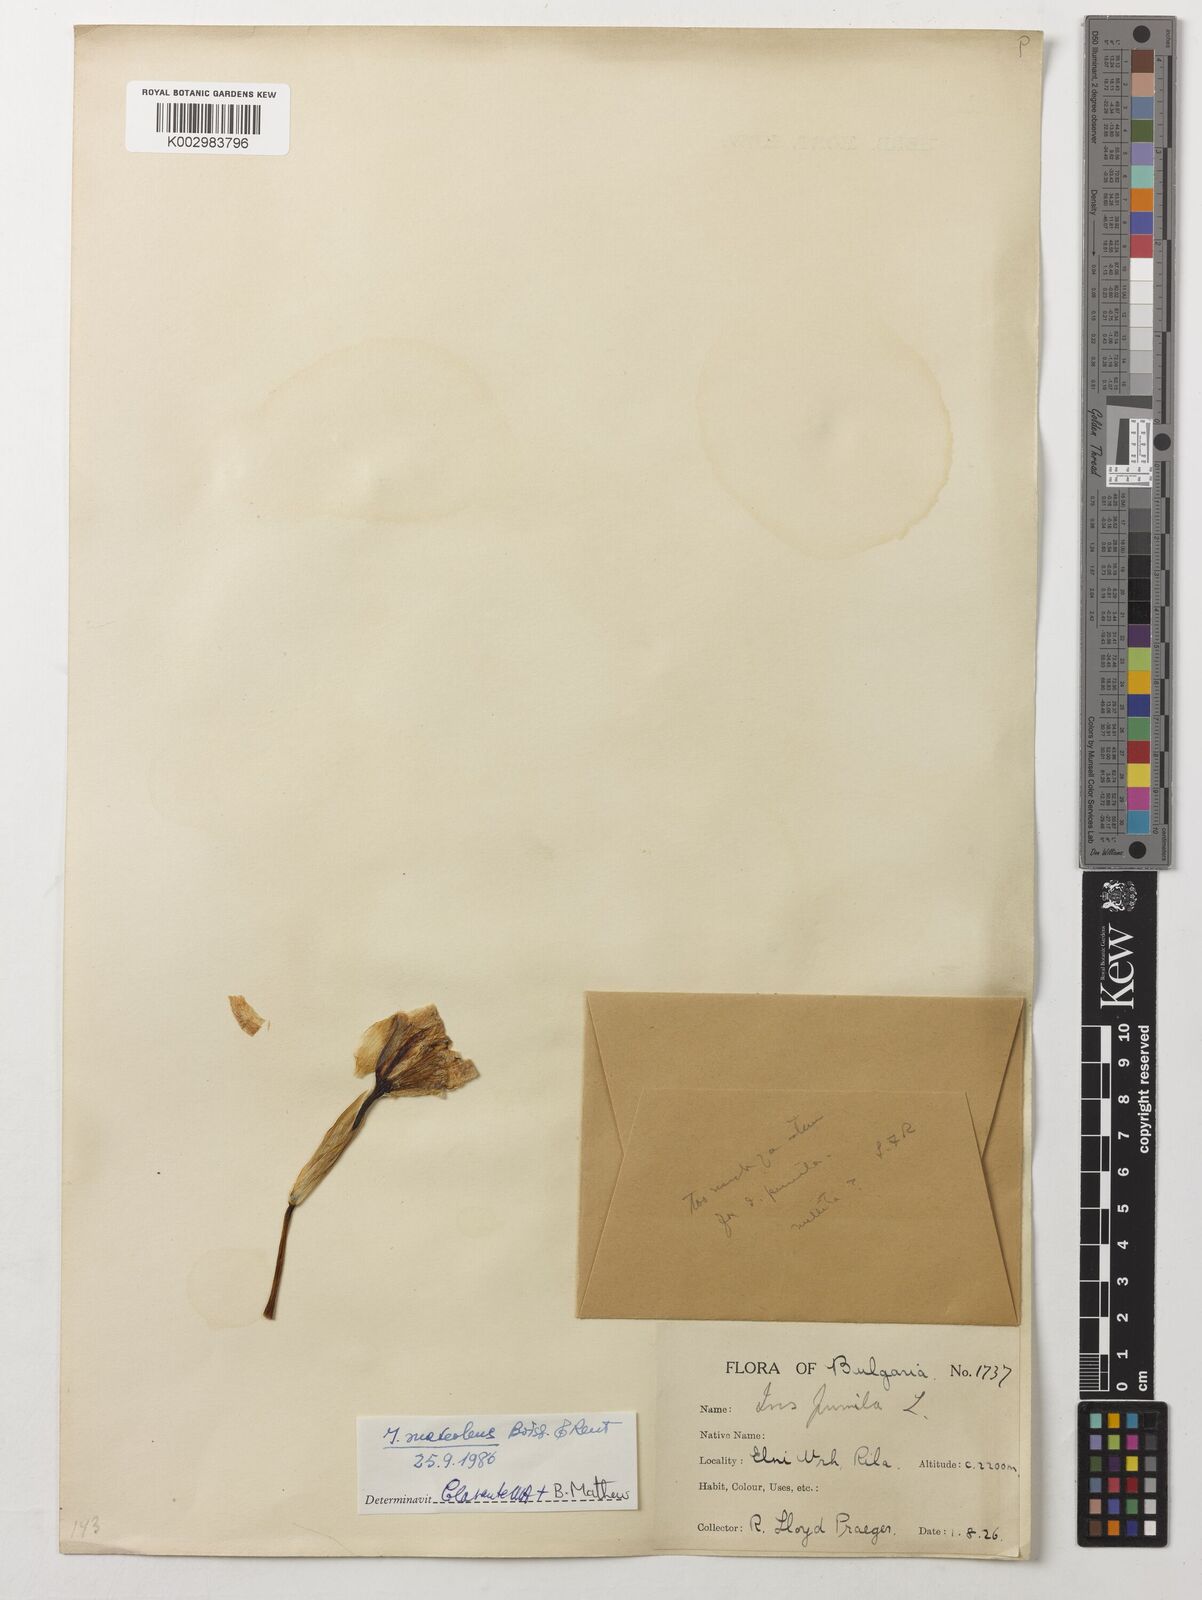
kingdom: Plantae
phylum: Tracheophyta
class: Liliopsida
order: Asparagales
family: Iridaceae
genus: Iris
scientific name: Iris suaveolens
